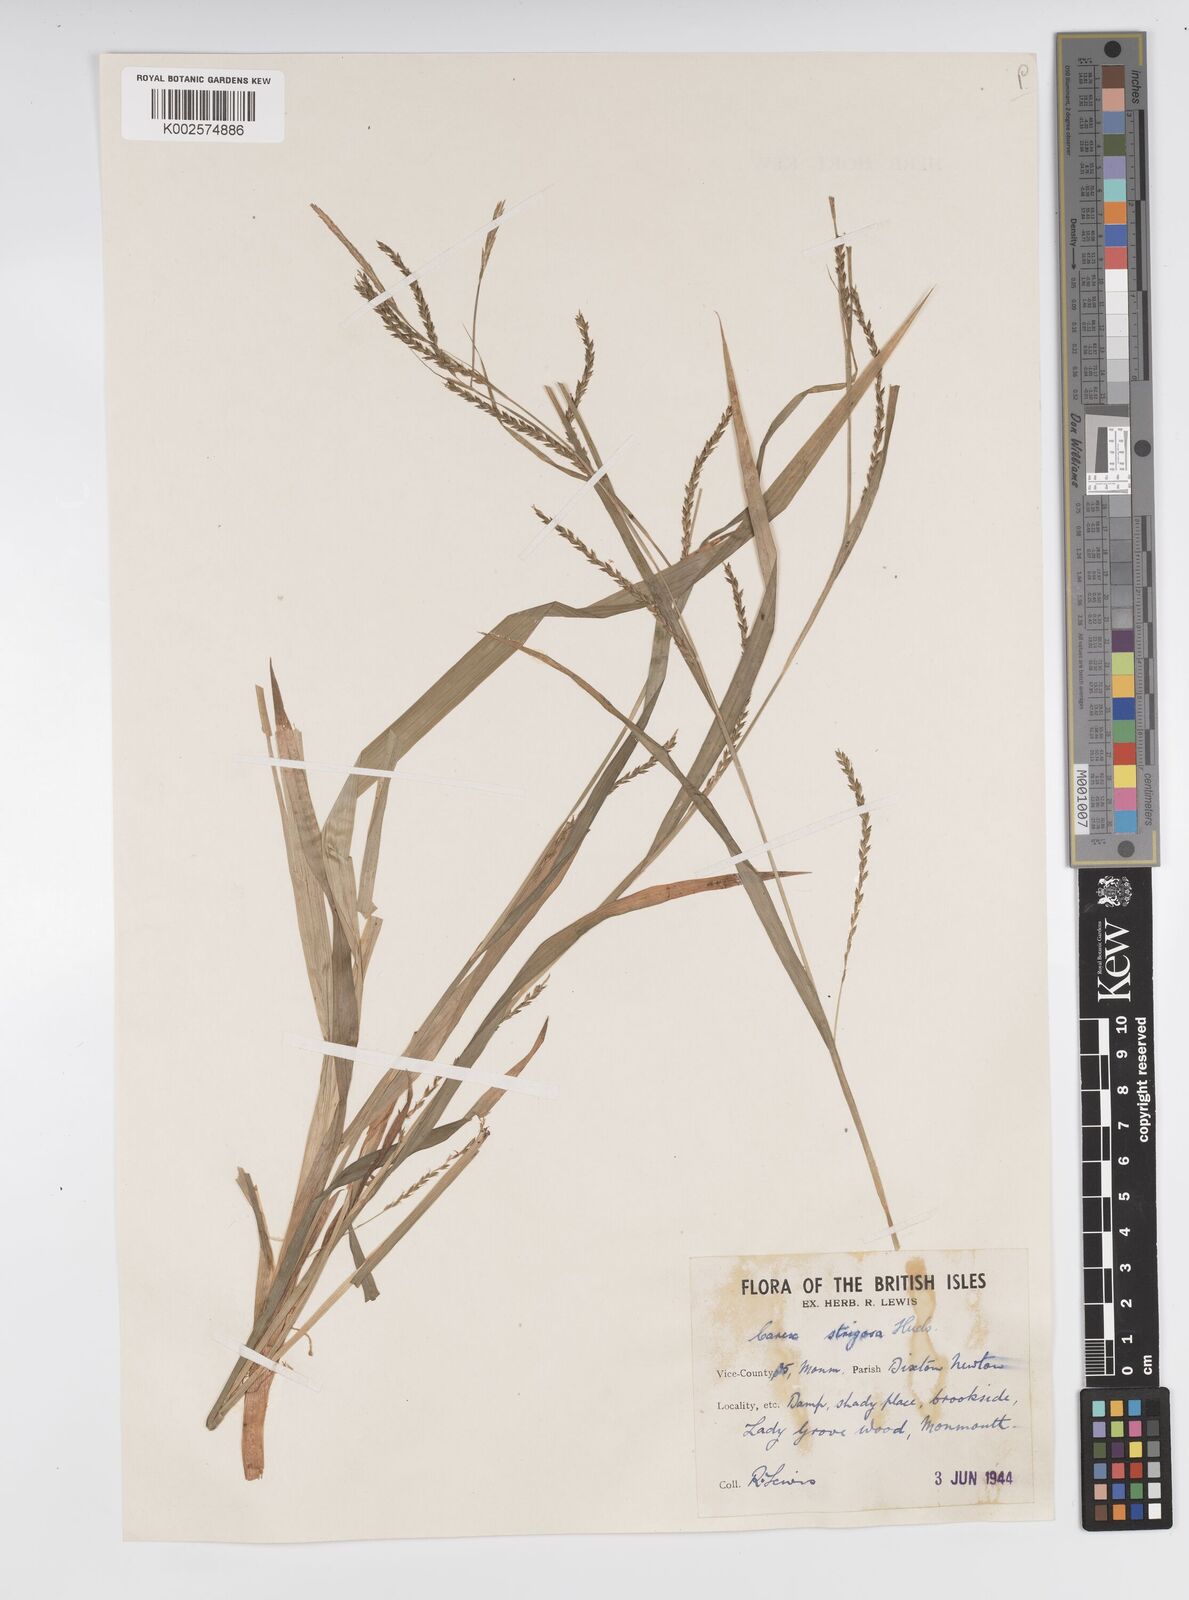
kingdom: Plantae
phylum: Tracheophyta
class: Liliopsida
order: Poales
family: Cyperaceae
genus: Carex
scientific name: Carex strigosa
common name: Thin-spiked wood-sedge
